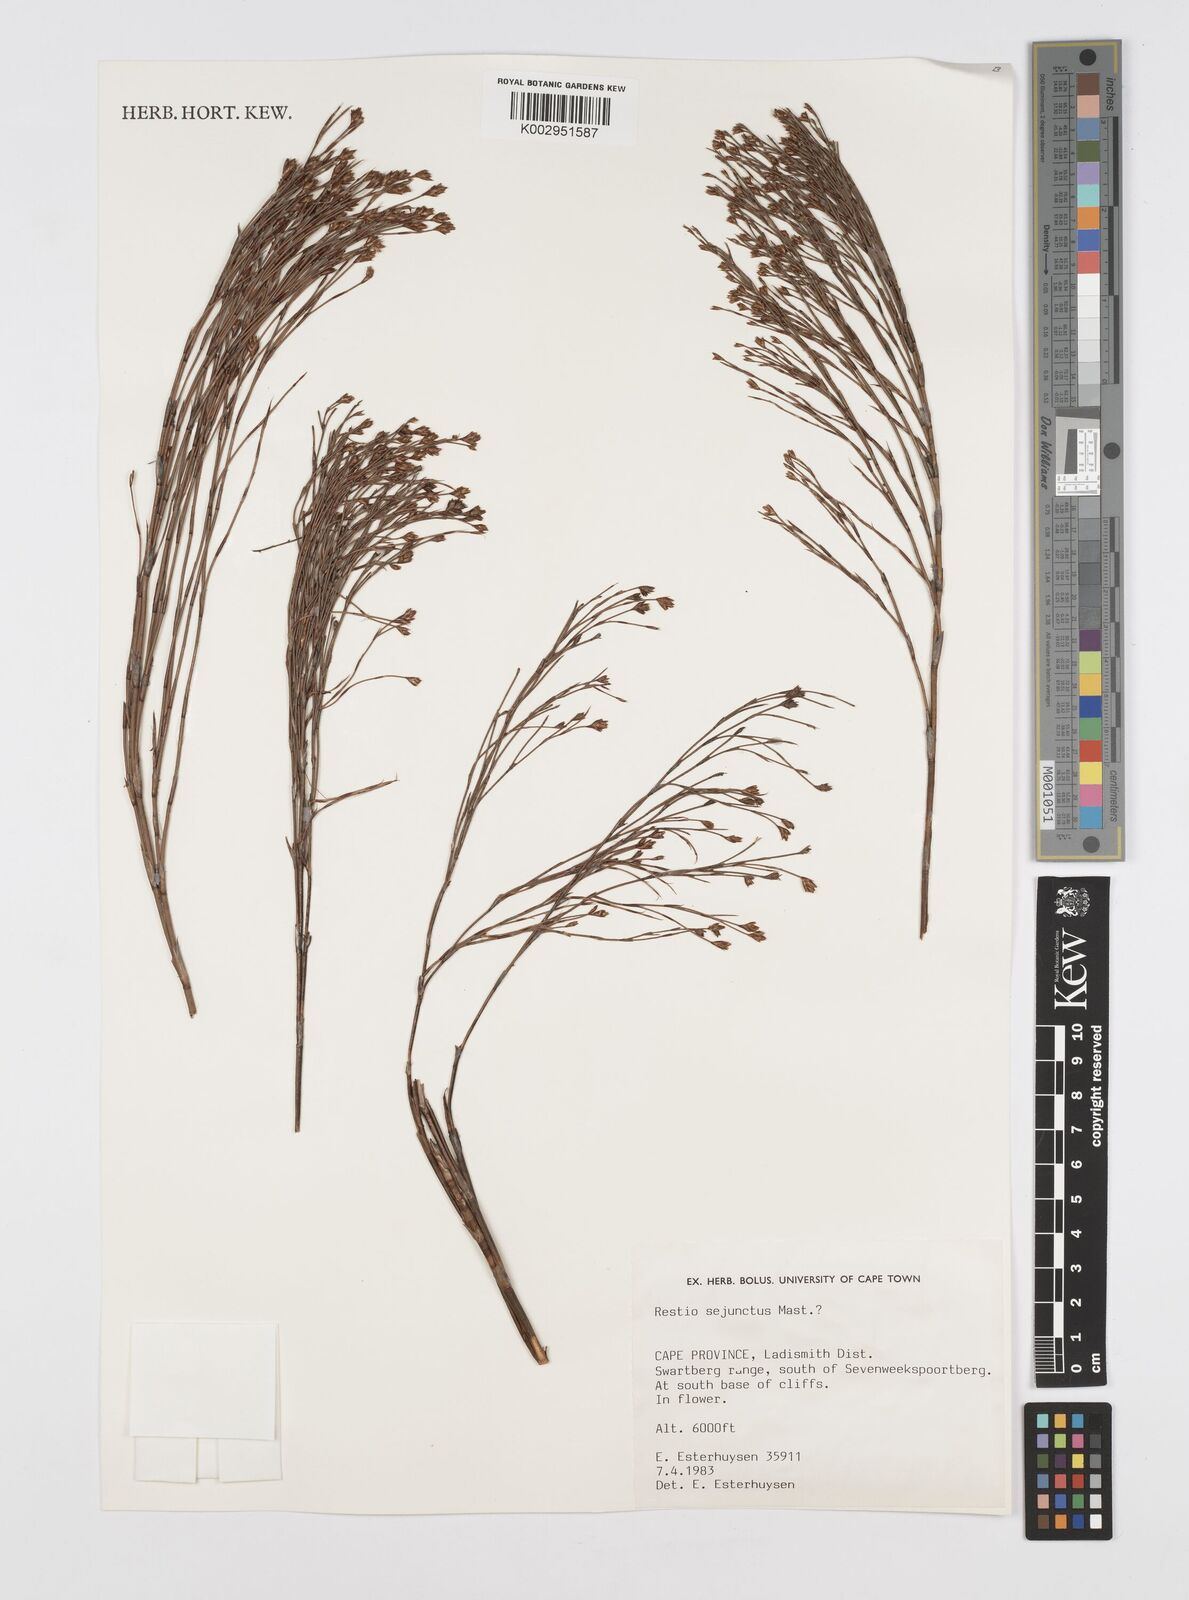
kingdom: Plantae
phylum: Tracheophyta
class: Liliopsida
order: Poales
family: Restionaceae
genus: Restio
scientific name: Restio sejunctus
